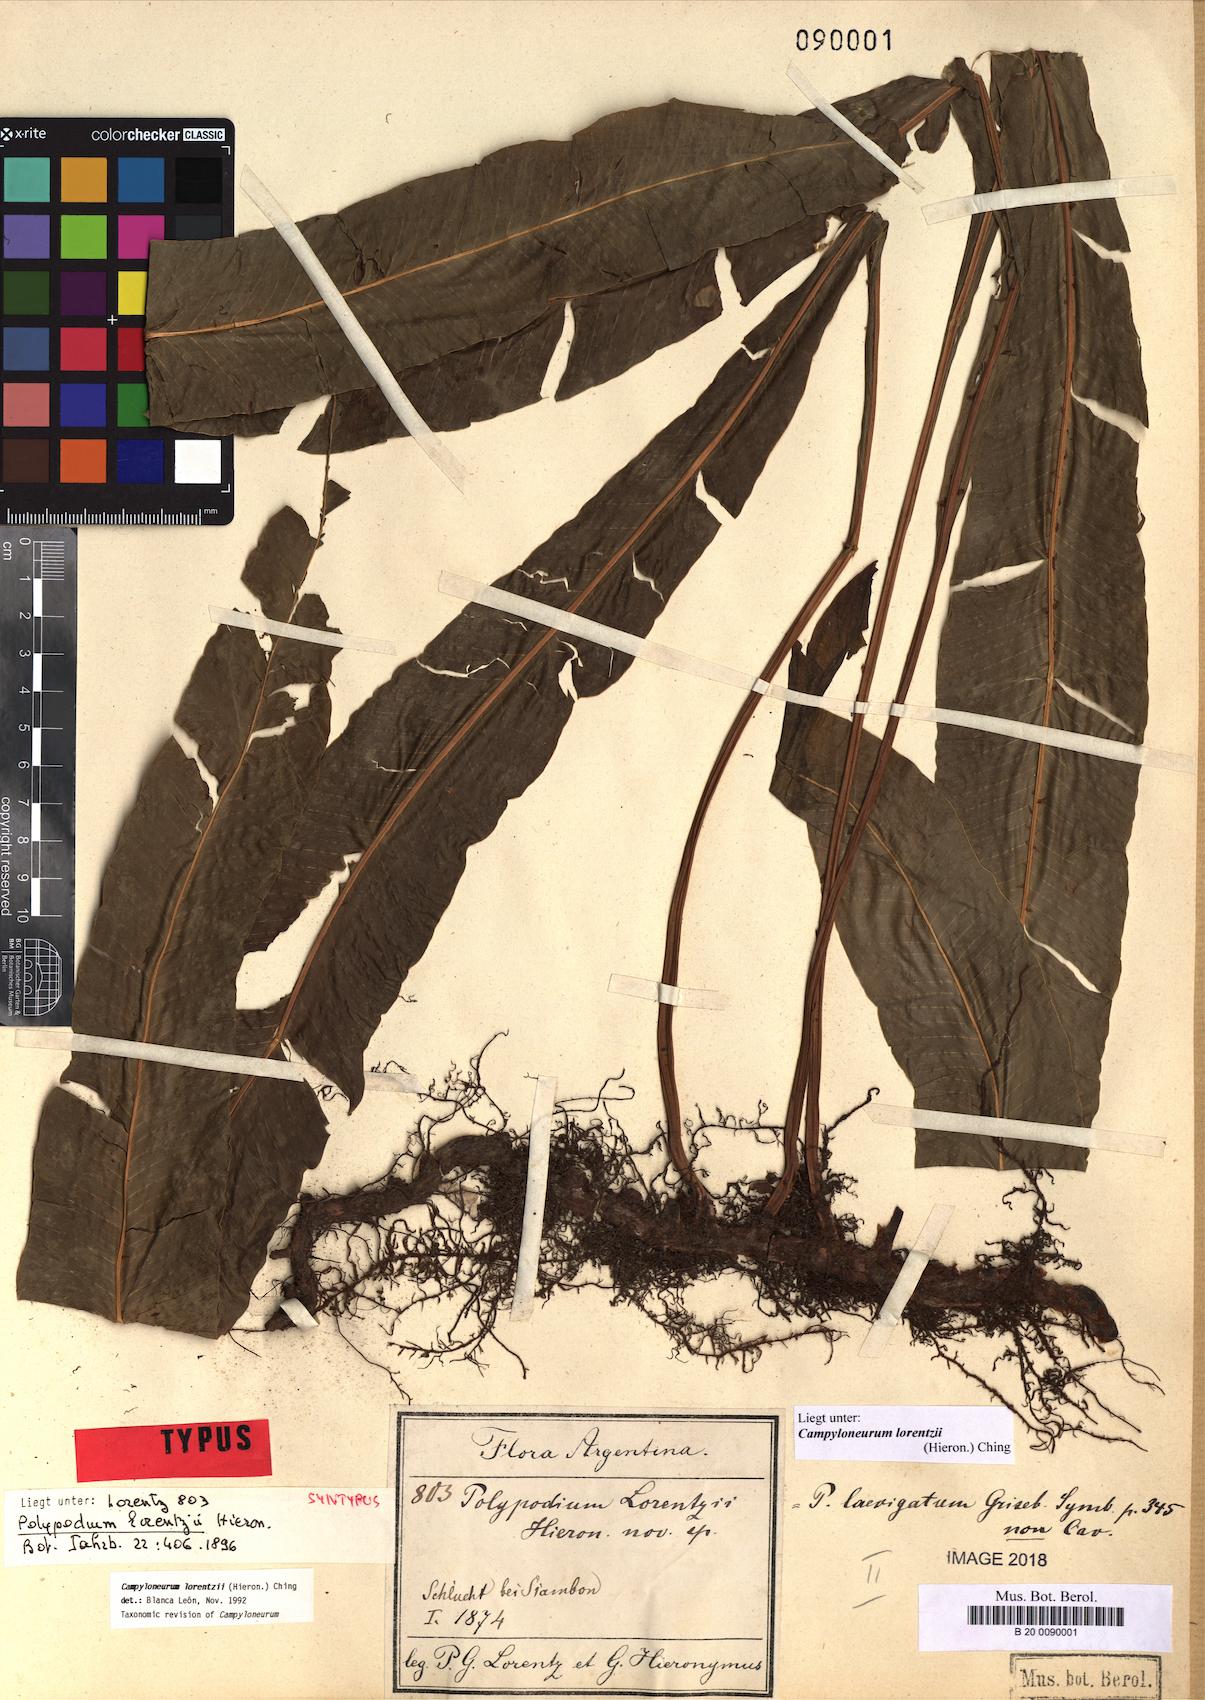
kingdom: Plantae
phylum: Tracheophyta
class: Polypodiopsida
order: Polypodiales
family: Polypodiaceae
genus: Campyloneurum
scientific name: Campyloneurum lorentzii
